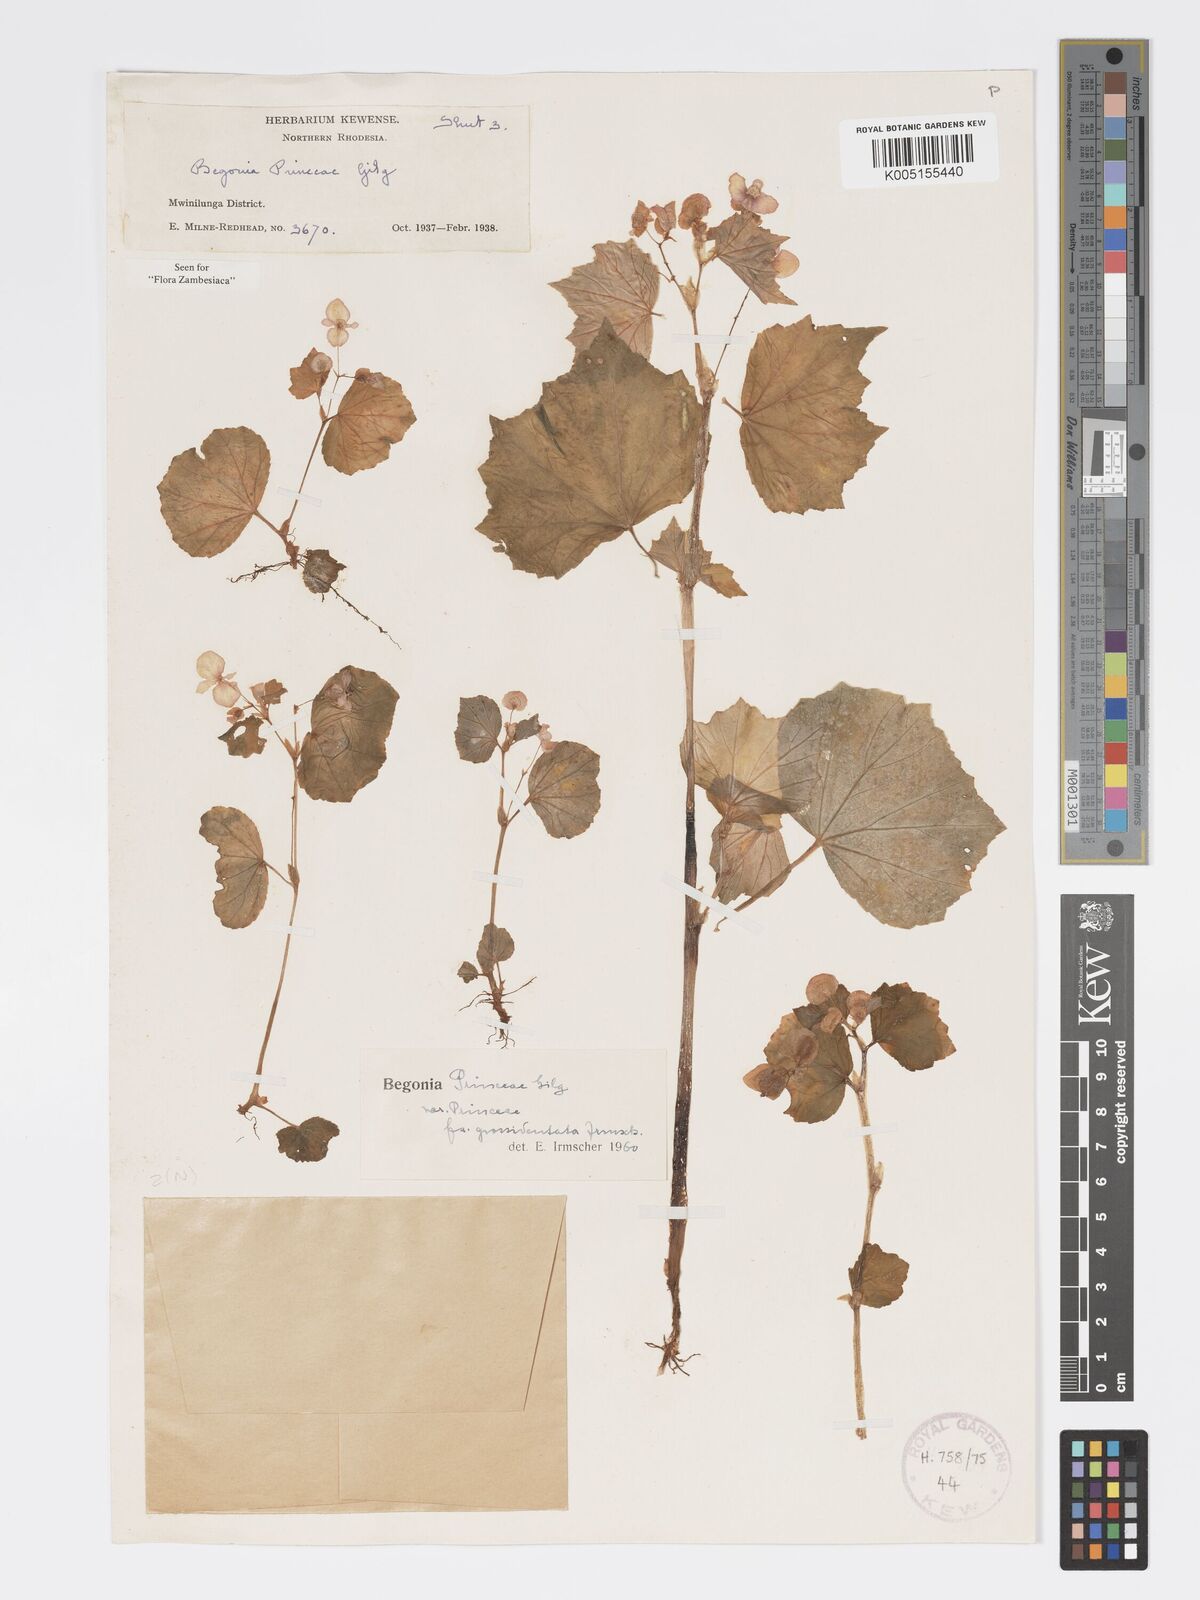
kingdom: Plantae
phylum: Tracheophyta
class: Magnoliopsida
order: Cucurbitales
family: Begoniaceae
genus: Begonia
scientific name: Begonia princeae
